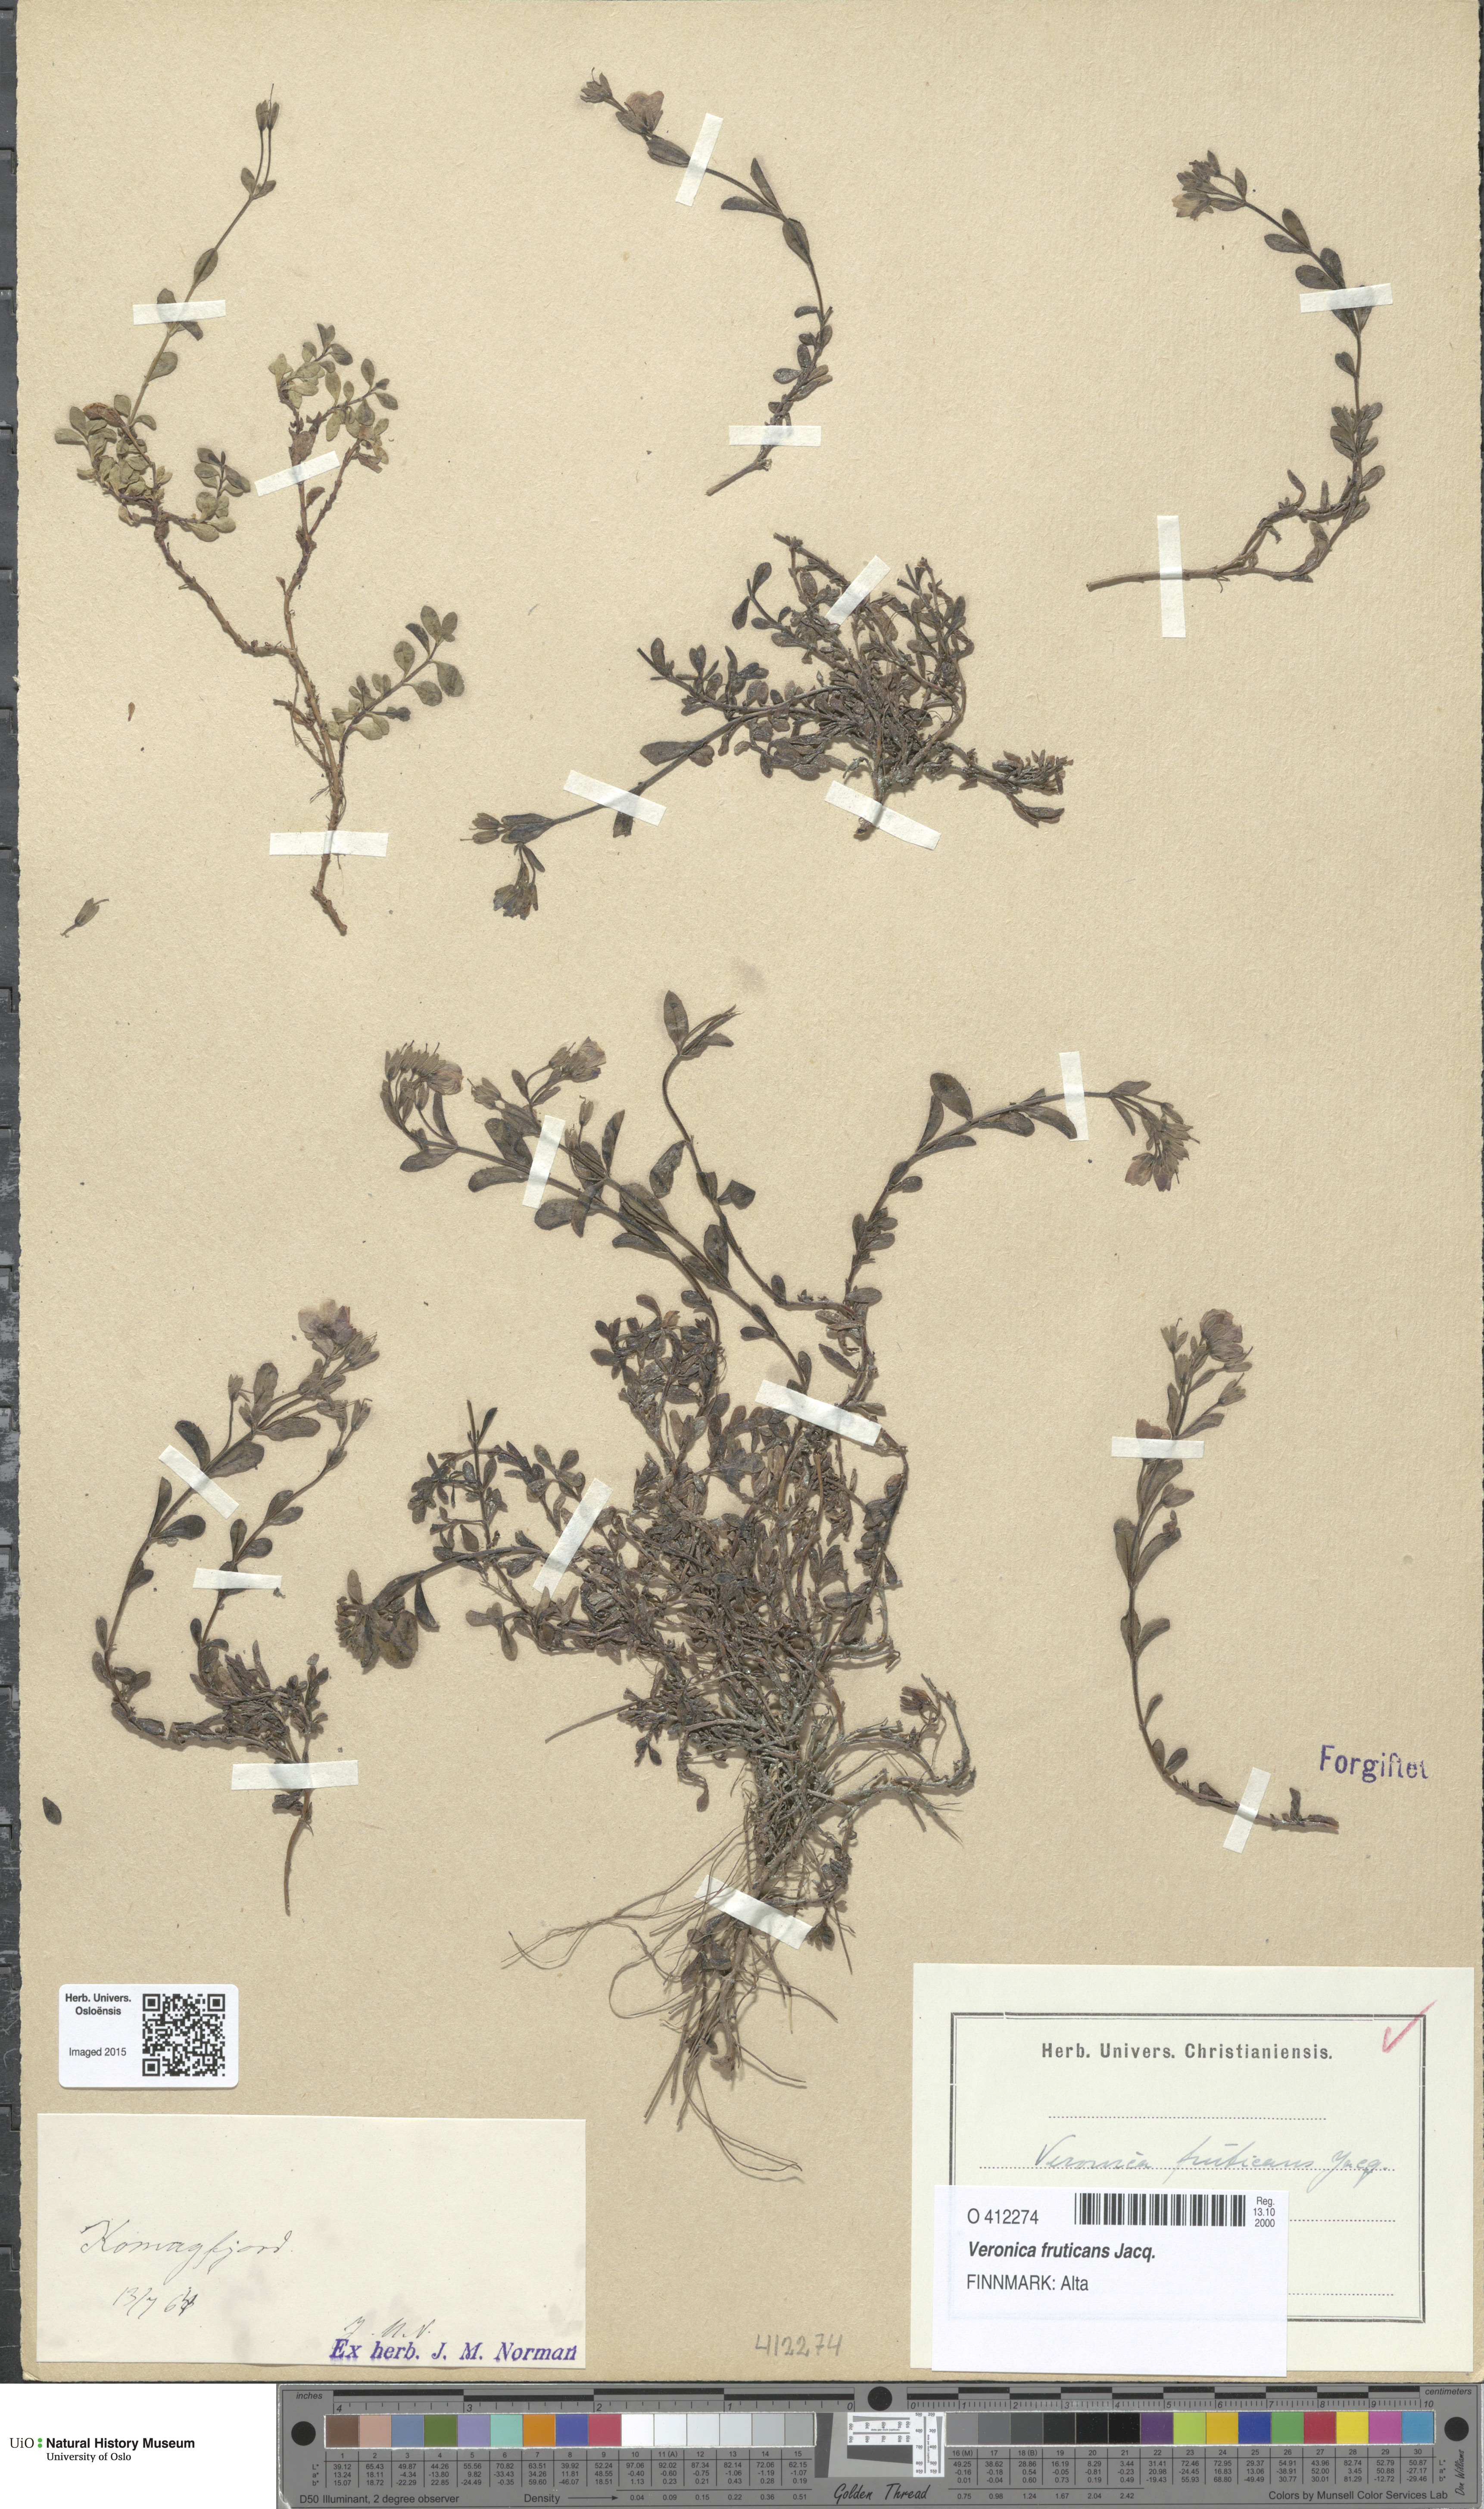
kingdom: Plantae
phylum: Tracheophyta
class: Magnoliopsida
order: Lamiales
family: Plantaginaceae
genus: Veronica
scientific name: Veronica fruticans
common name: Rock speedwell
